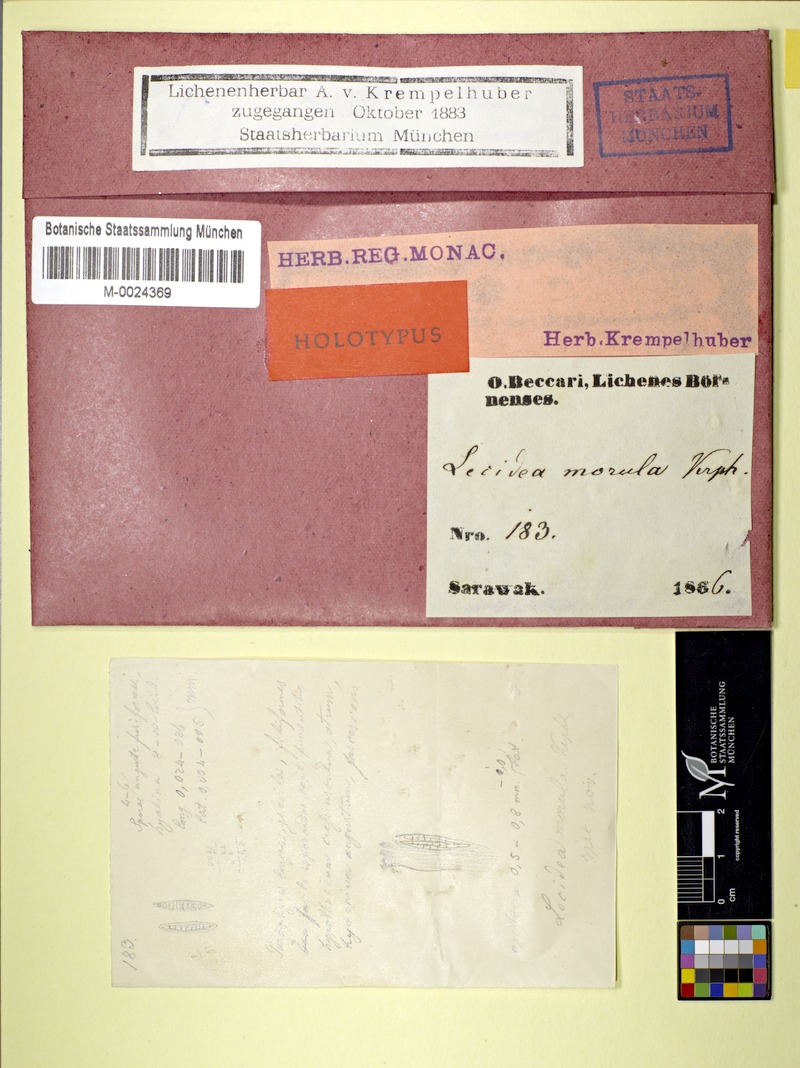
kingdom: Fungi
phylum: Ascomycota
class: Lecanoromycetes
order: Lecanorales
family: Ramalinaceae
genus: Bacidia
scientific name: Bacidia morosa
